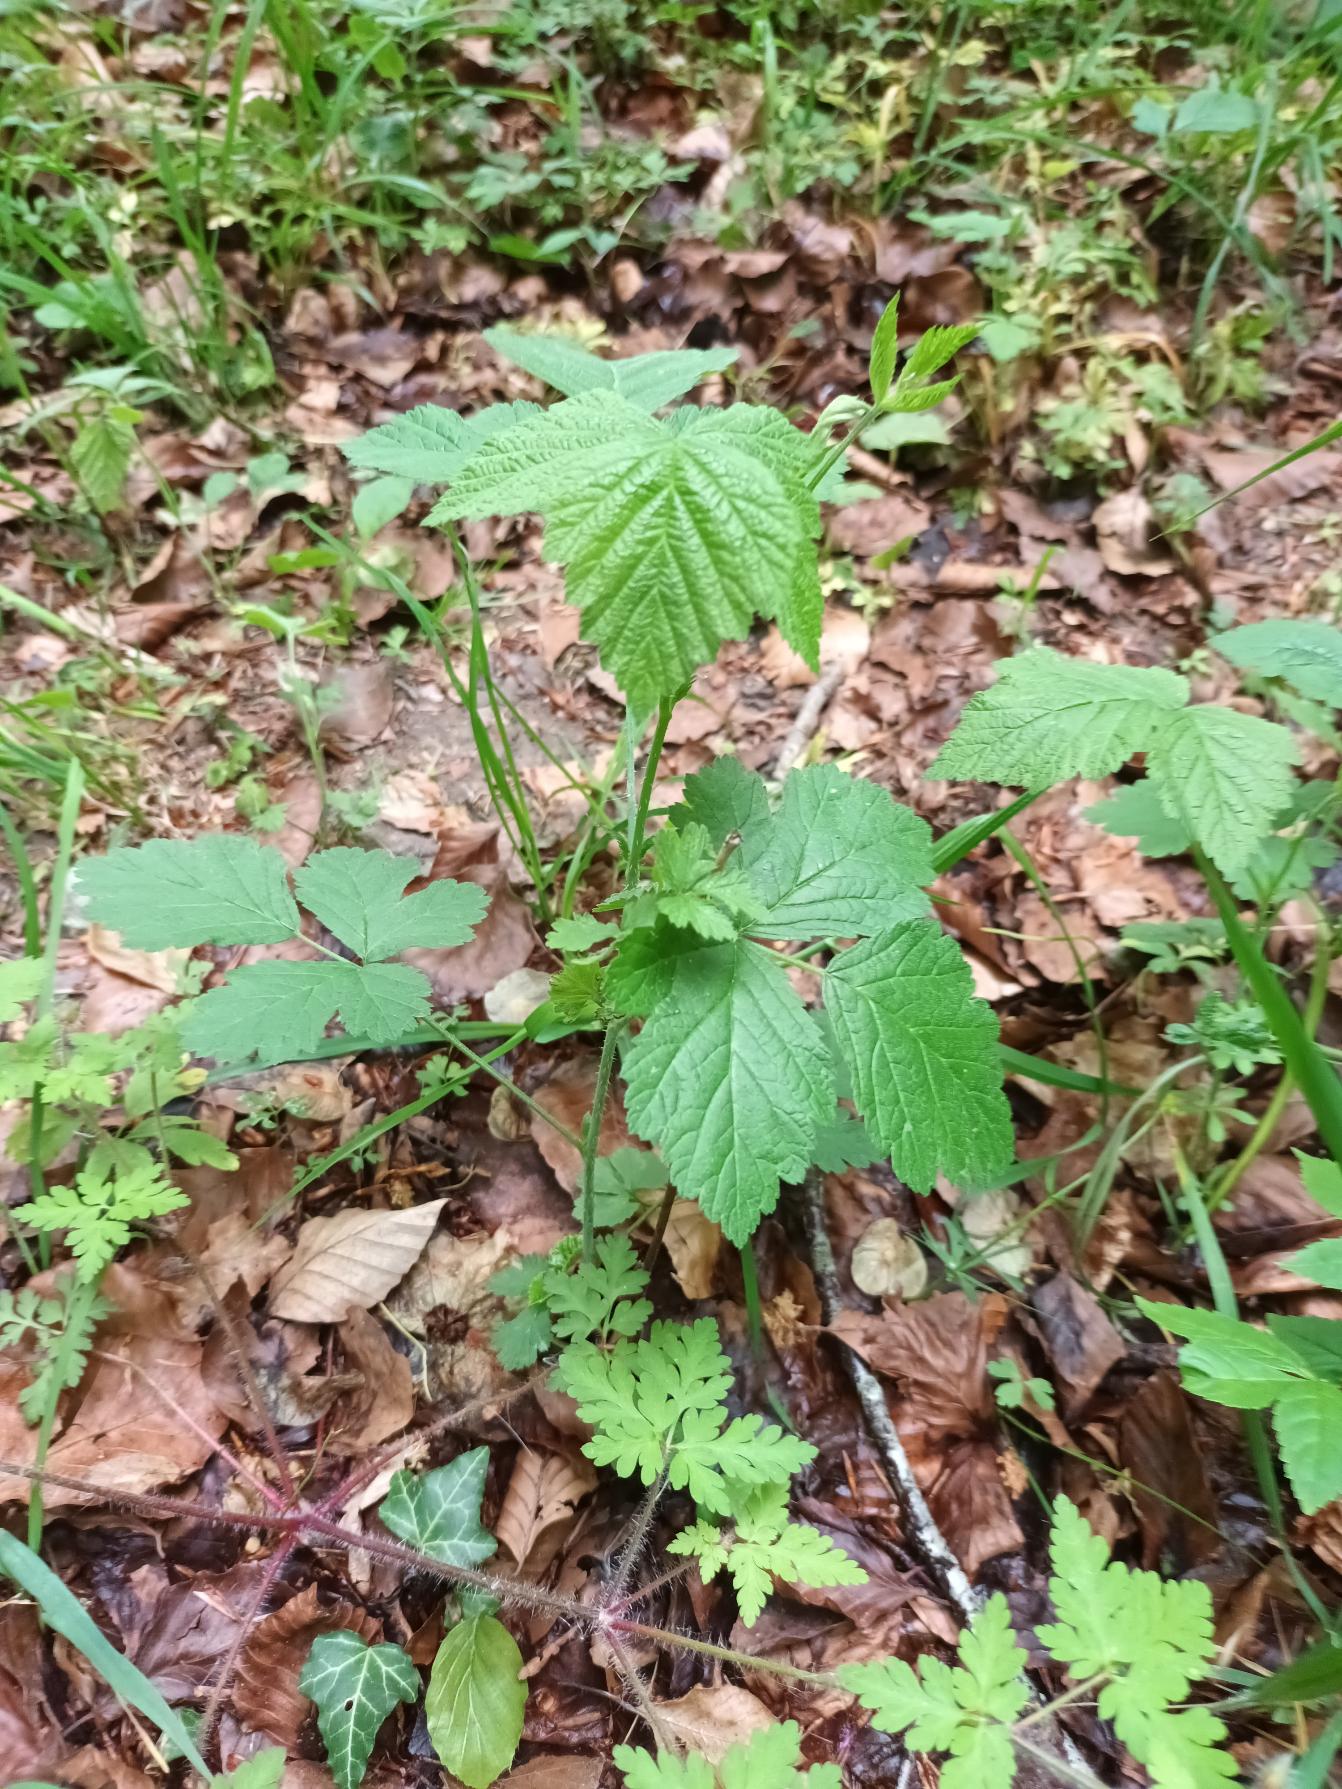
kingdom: Plantae
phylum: Tracheophyta
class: Magnoliopsida
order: Rosales
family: Rosaceae
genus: Rubus
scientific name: Rubus saxatilis
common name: Fruebær
